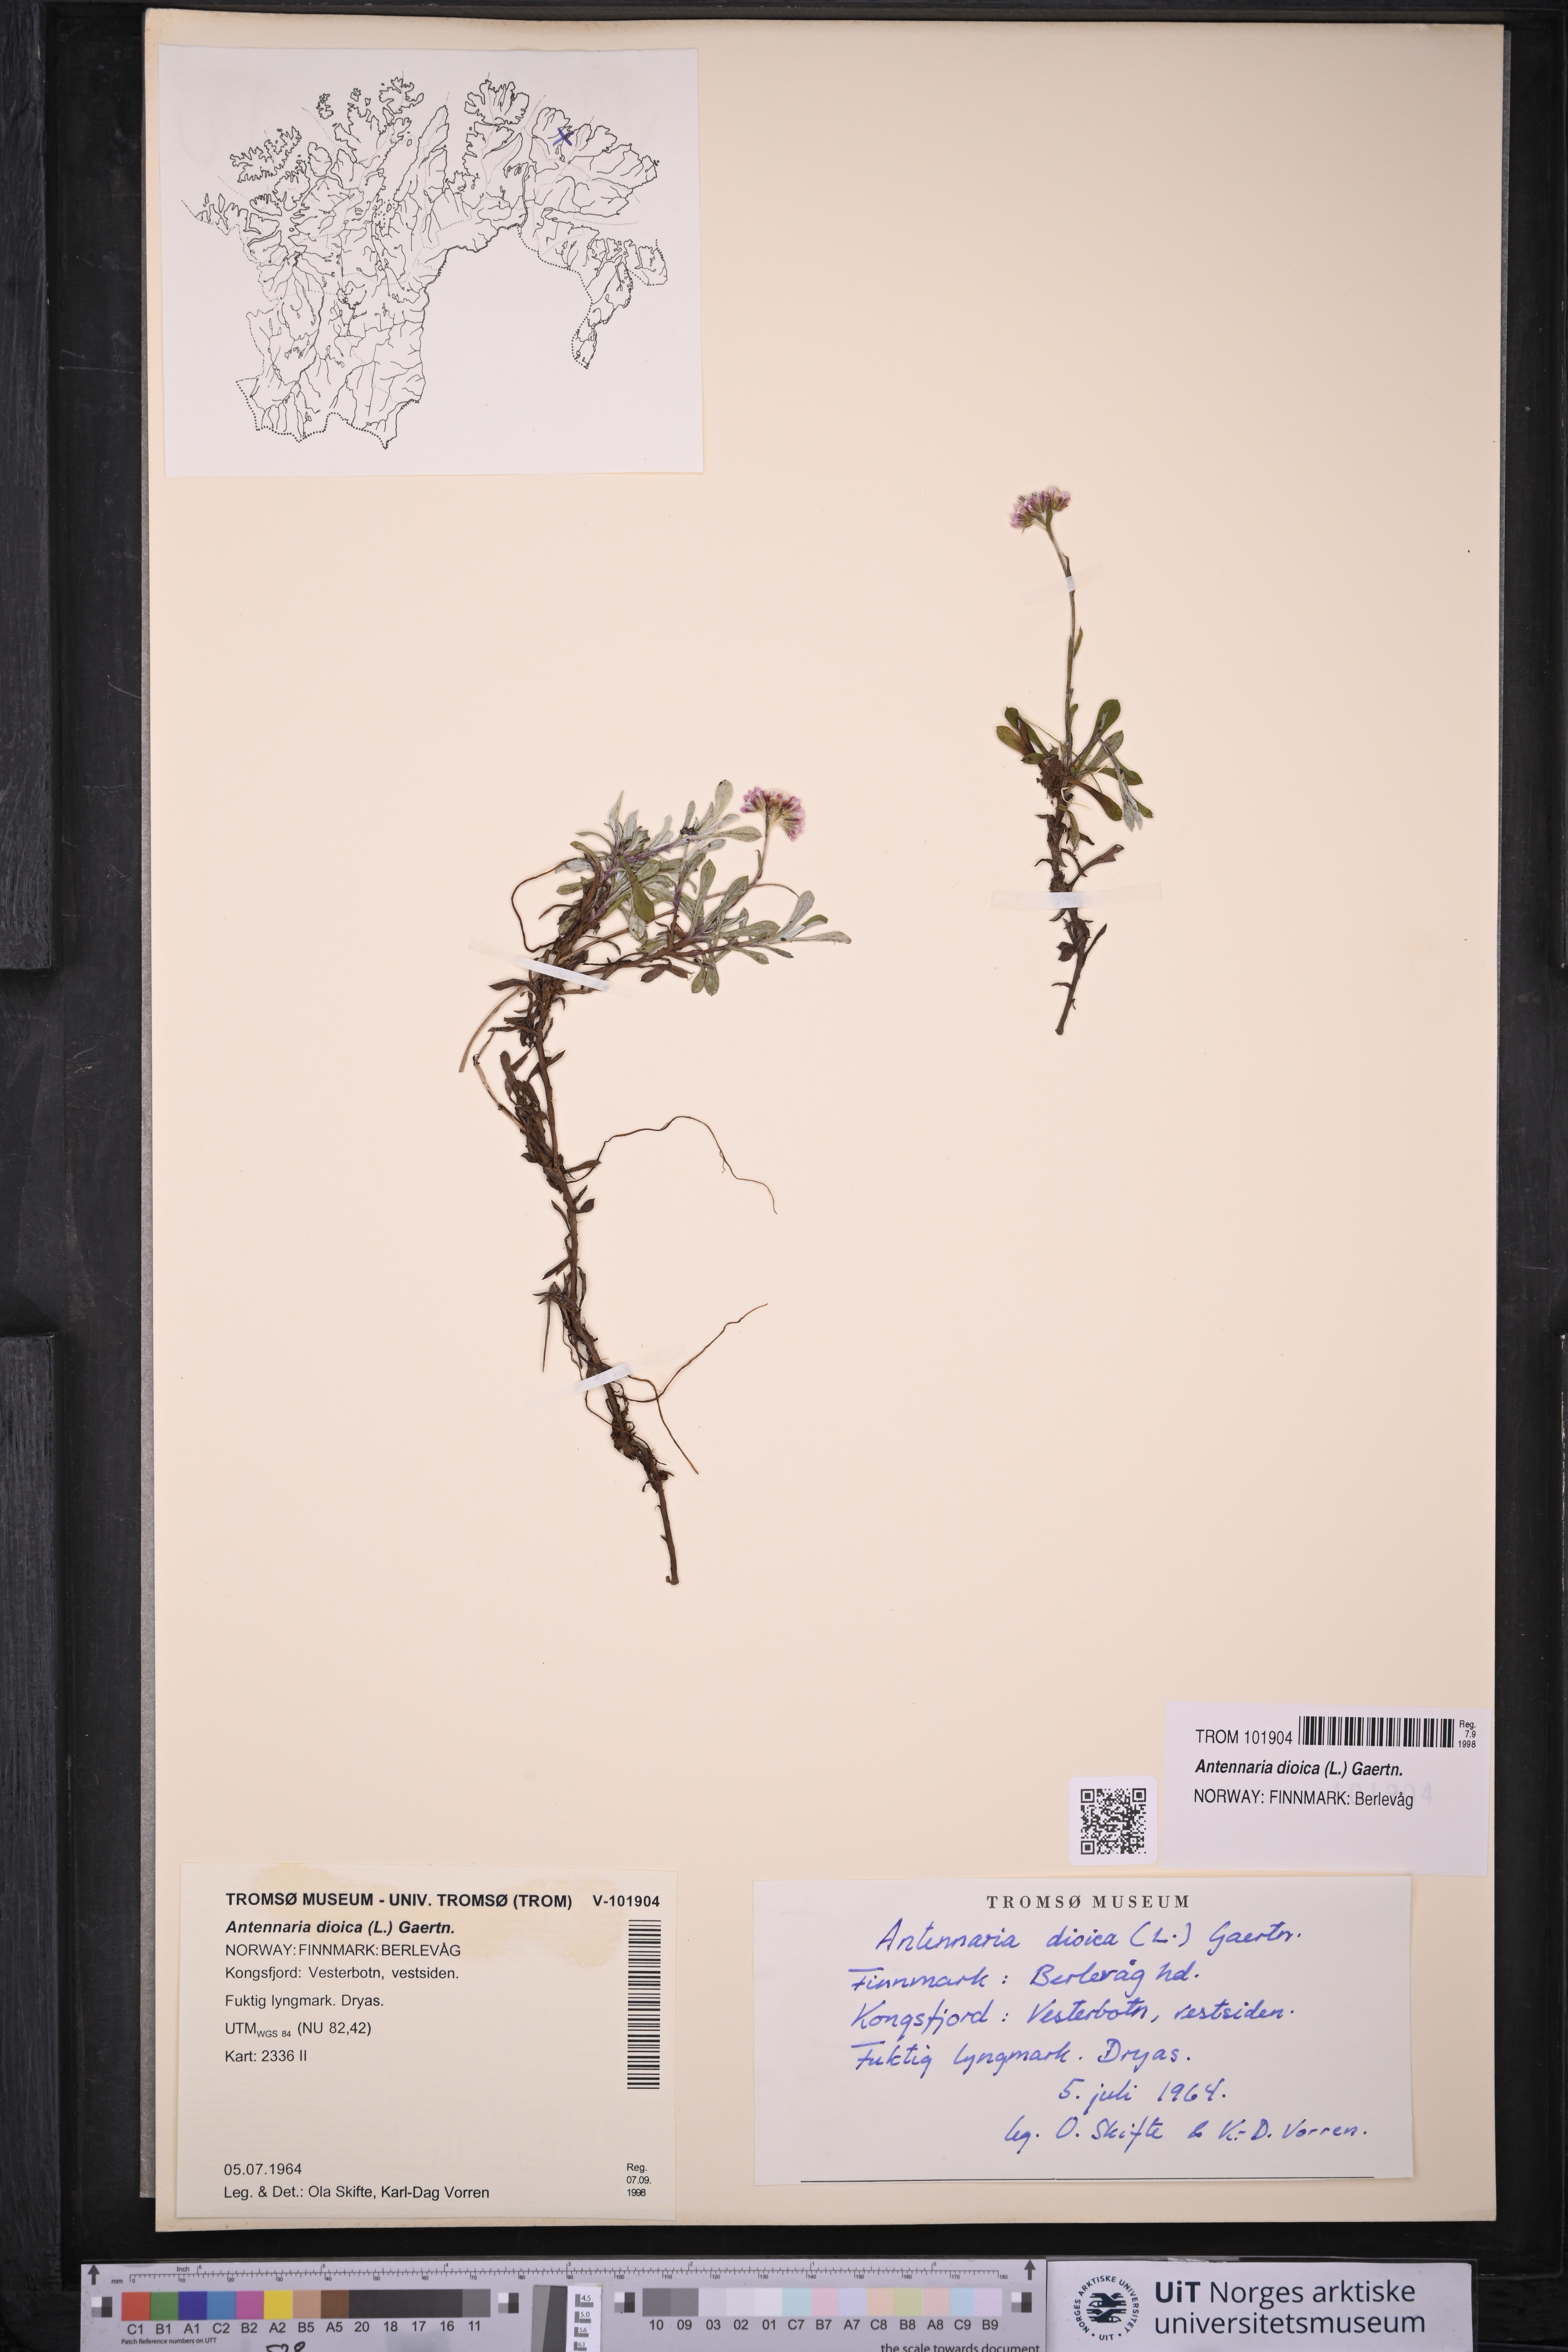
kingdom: Plantae
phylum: Tracheophyta
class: Magnoliopsida
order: Asterales
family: Asteraceae
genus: Antennaria
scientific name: Antennaria dioica
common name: Mountain everlasting
